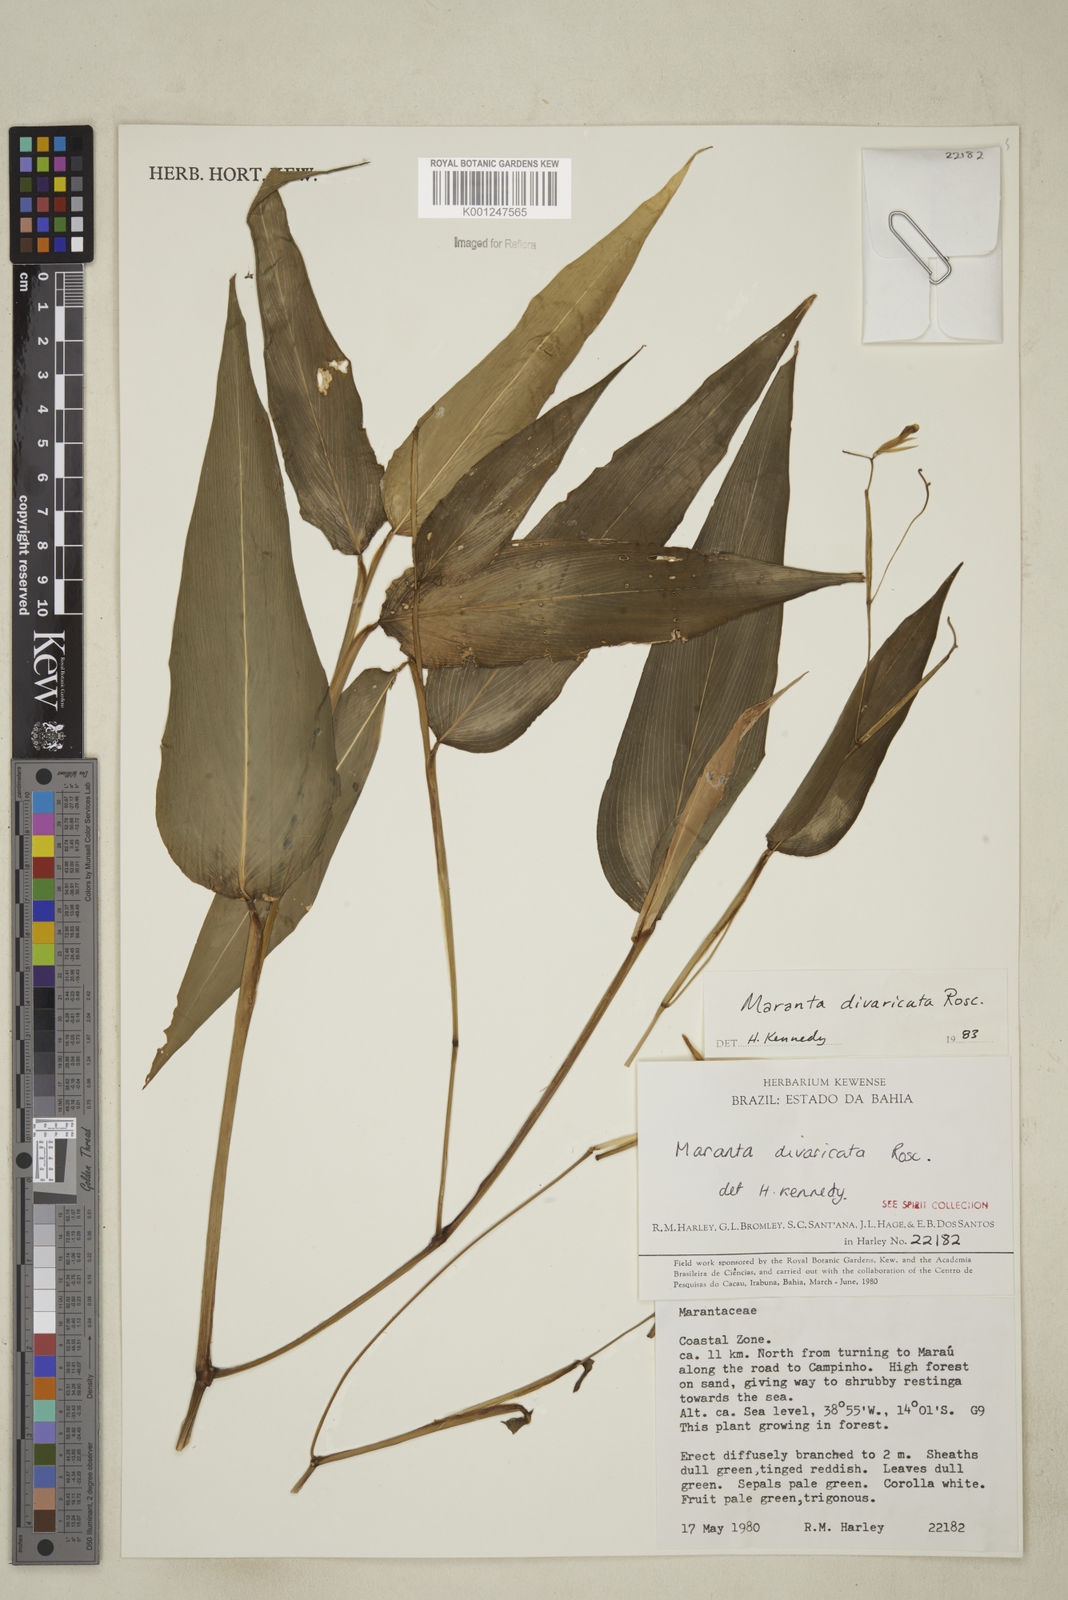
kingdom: Plantae
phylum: Tracheophyta
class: Liliopsida
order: Zingiberales
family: Marantaceae
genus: Maranta
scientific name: Maranta divaricata
